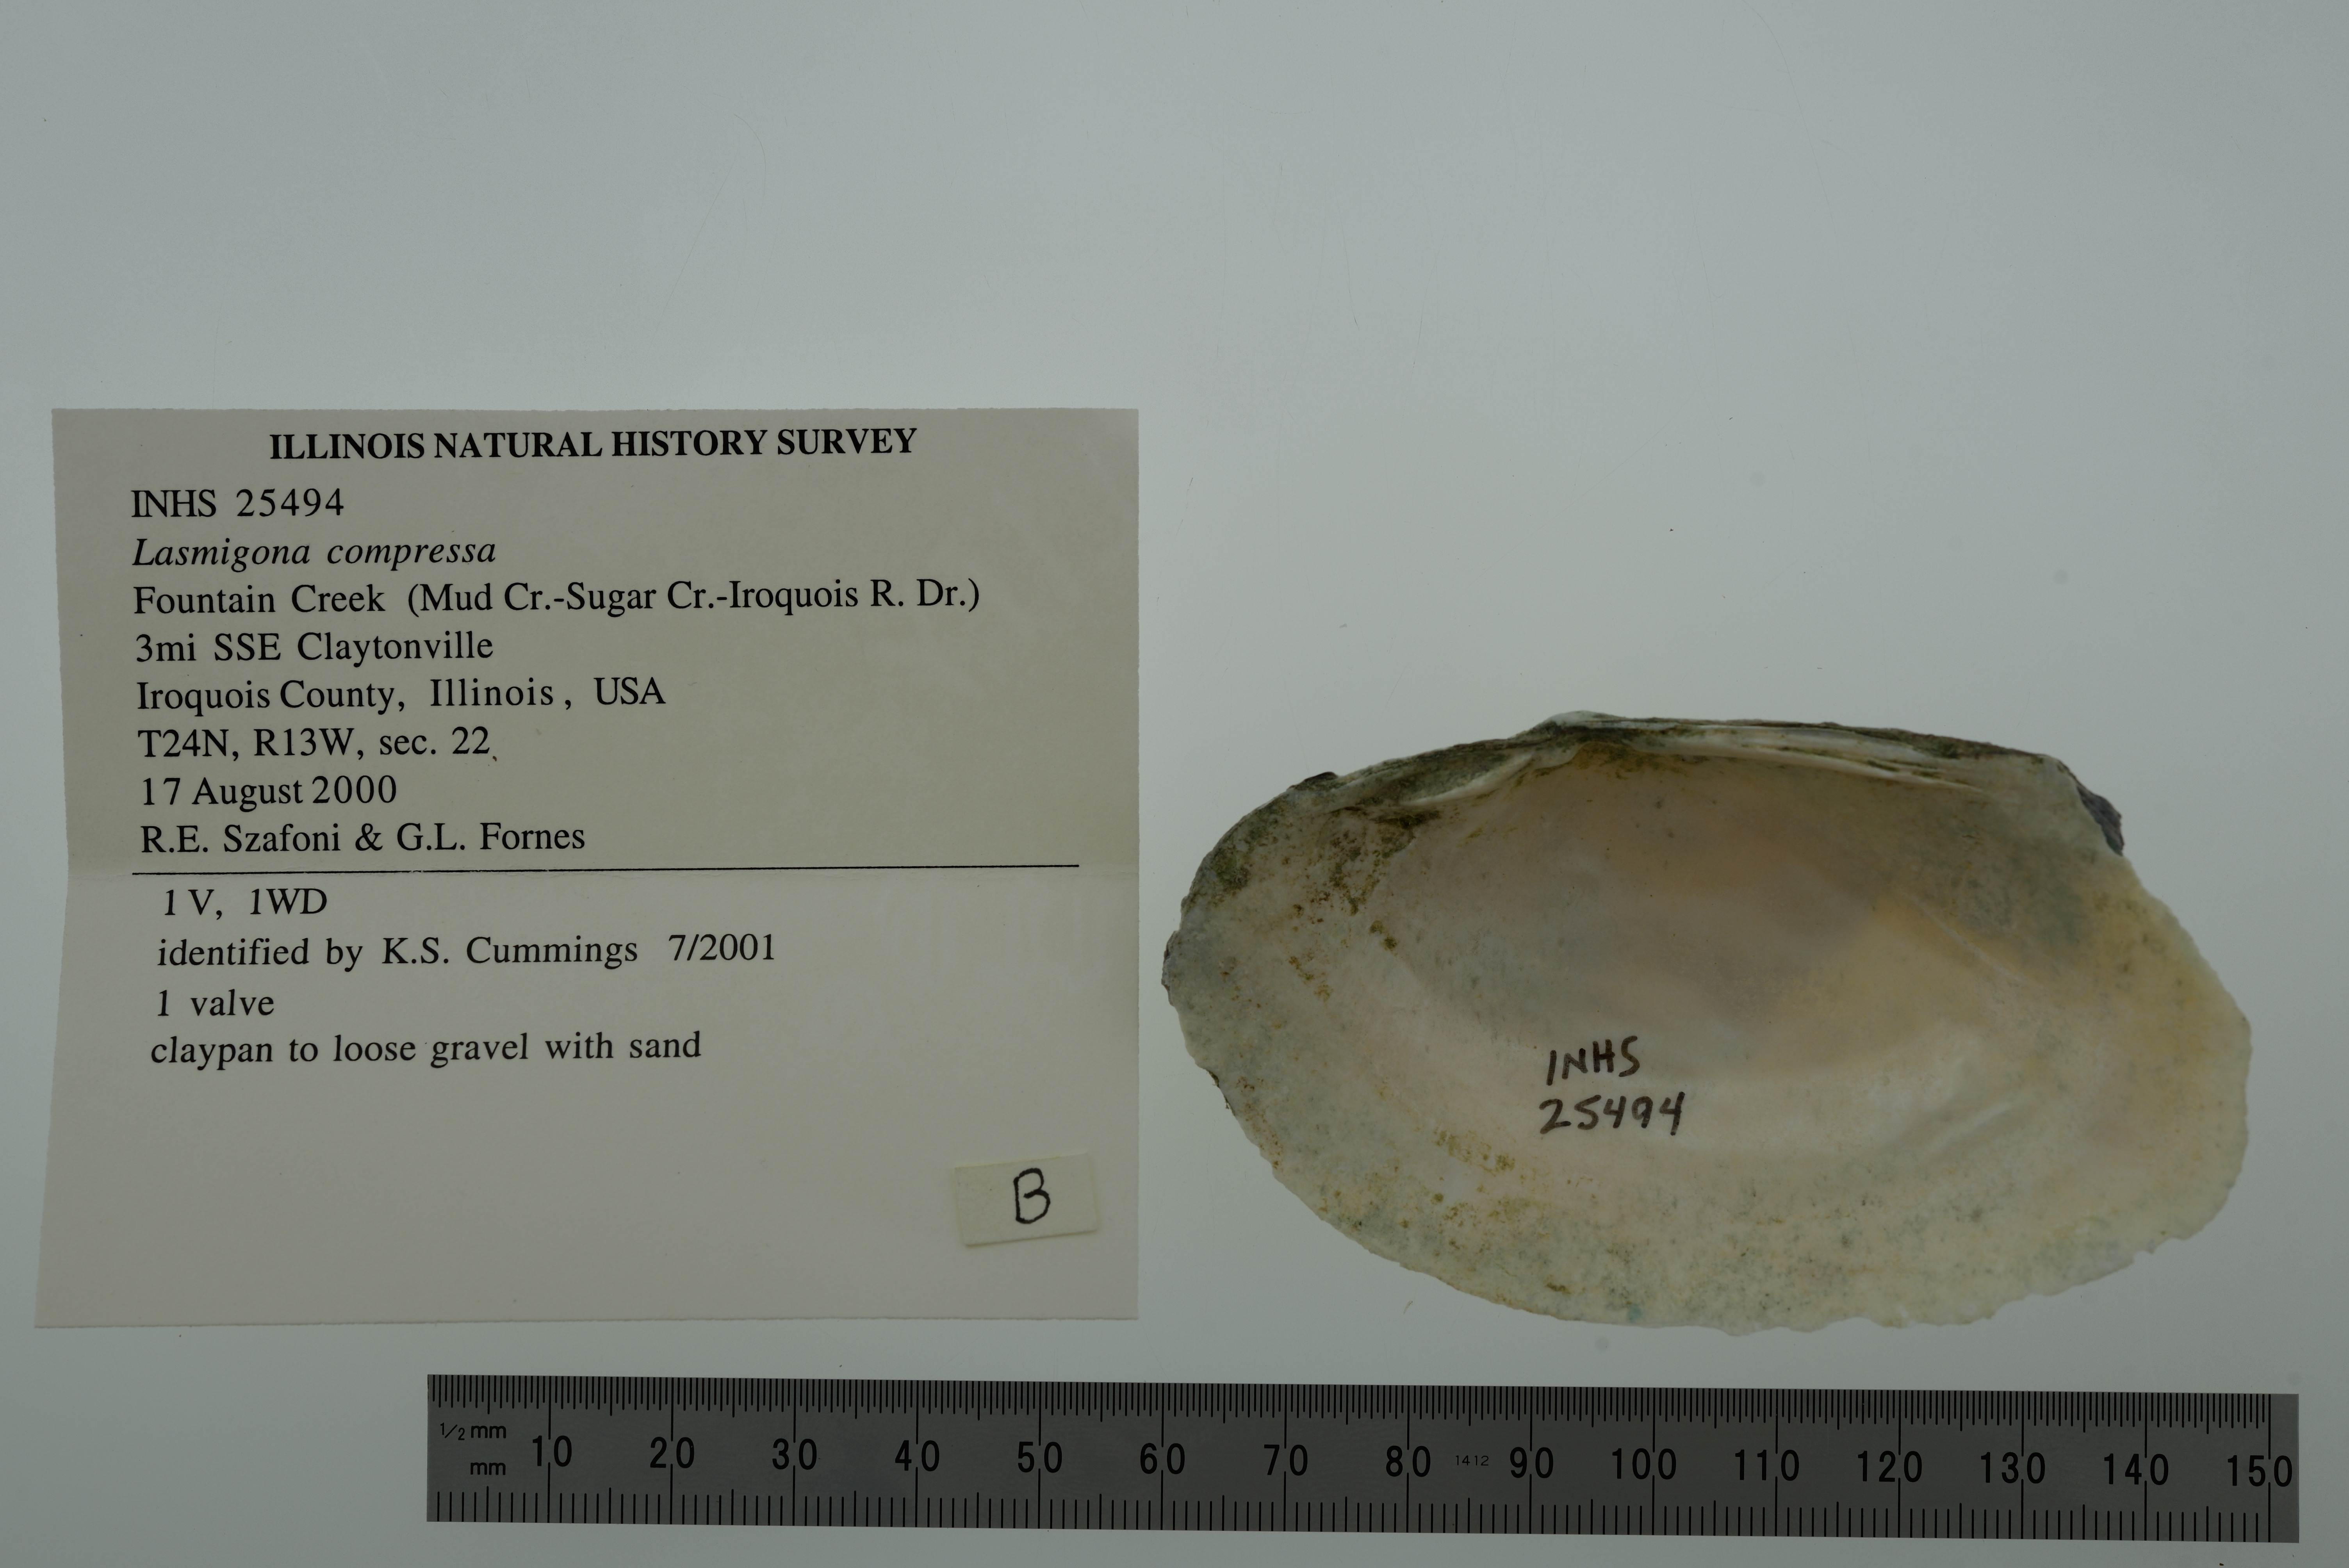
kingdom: Animalia
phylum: Mollusca
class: Bivalvia
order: Unionida
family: Unionidae
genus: Lasmigona
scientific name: Lasmigona compressa
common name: Creek heelsplitter
